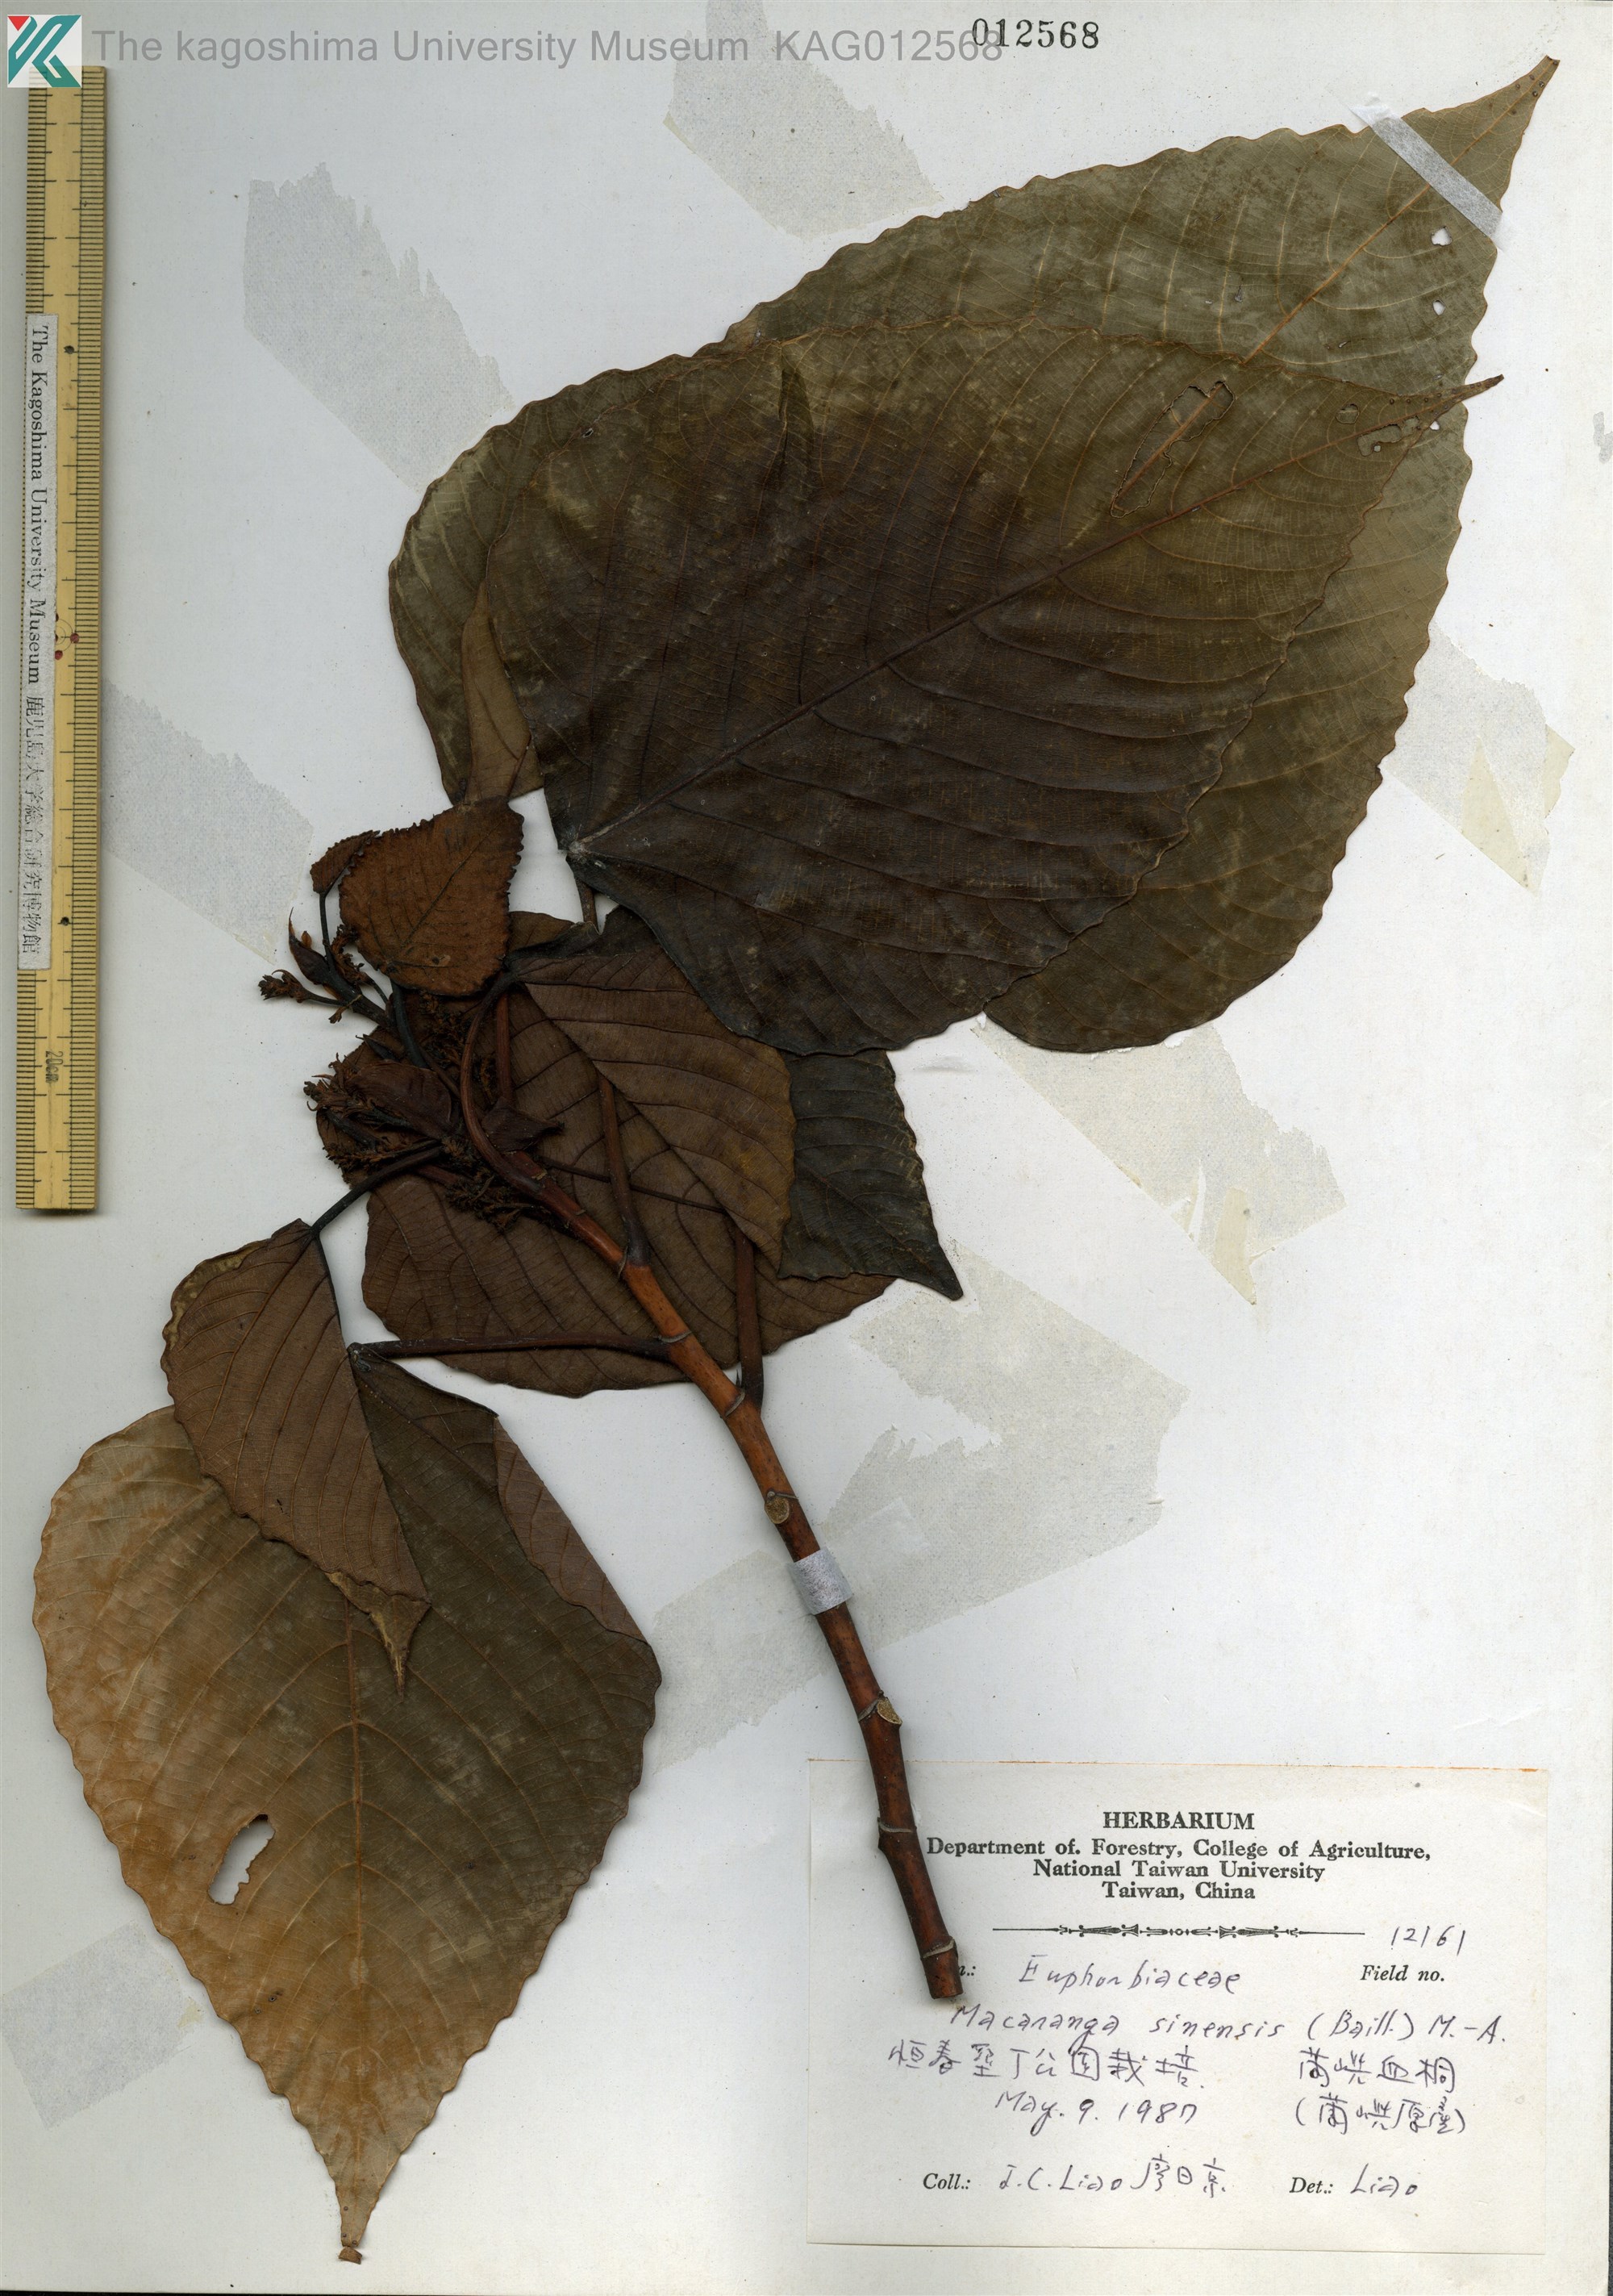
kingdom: Plantae
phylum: Tracheophyta
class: Magnoliopsida
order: Malpighiales
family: Euphorbiaceae
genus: Macaranga
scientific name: Macaranga sinensis
